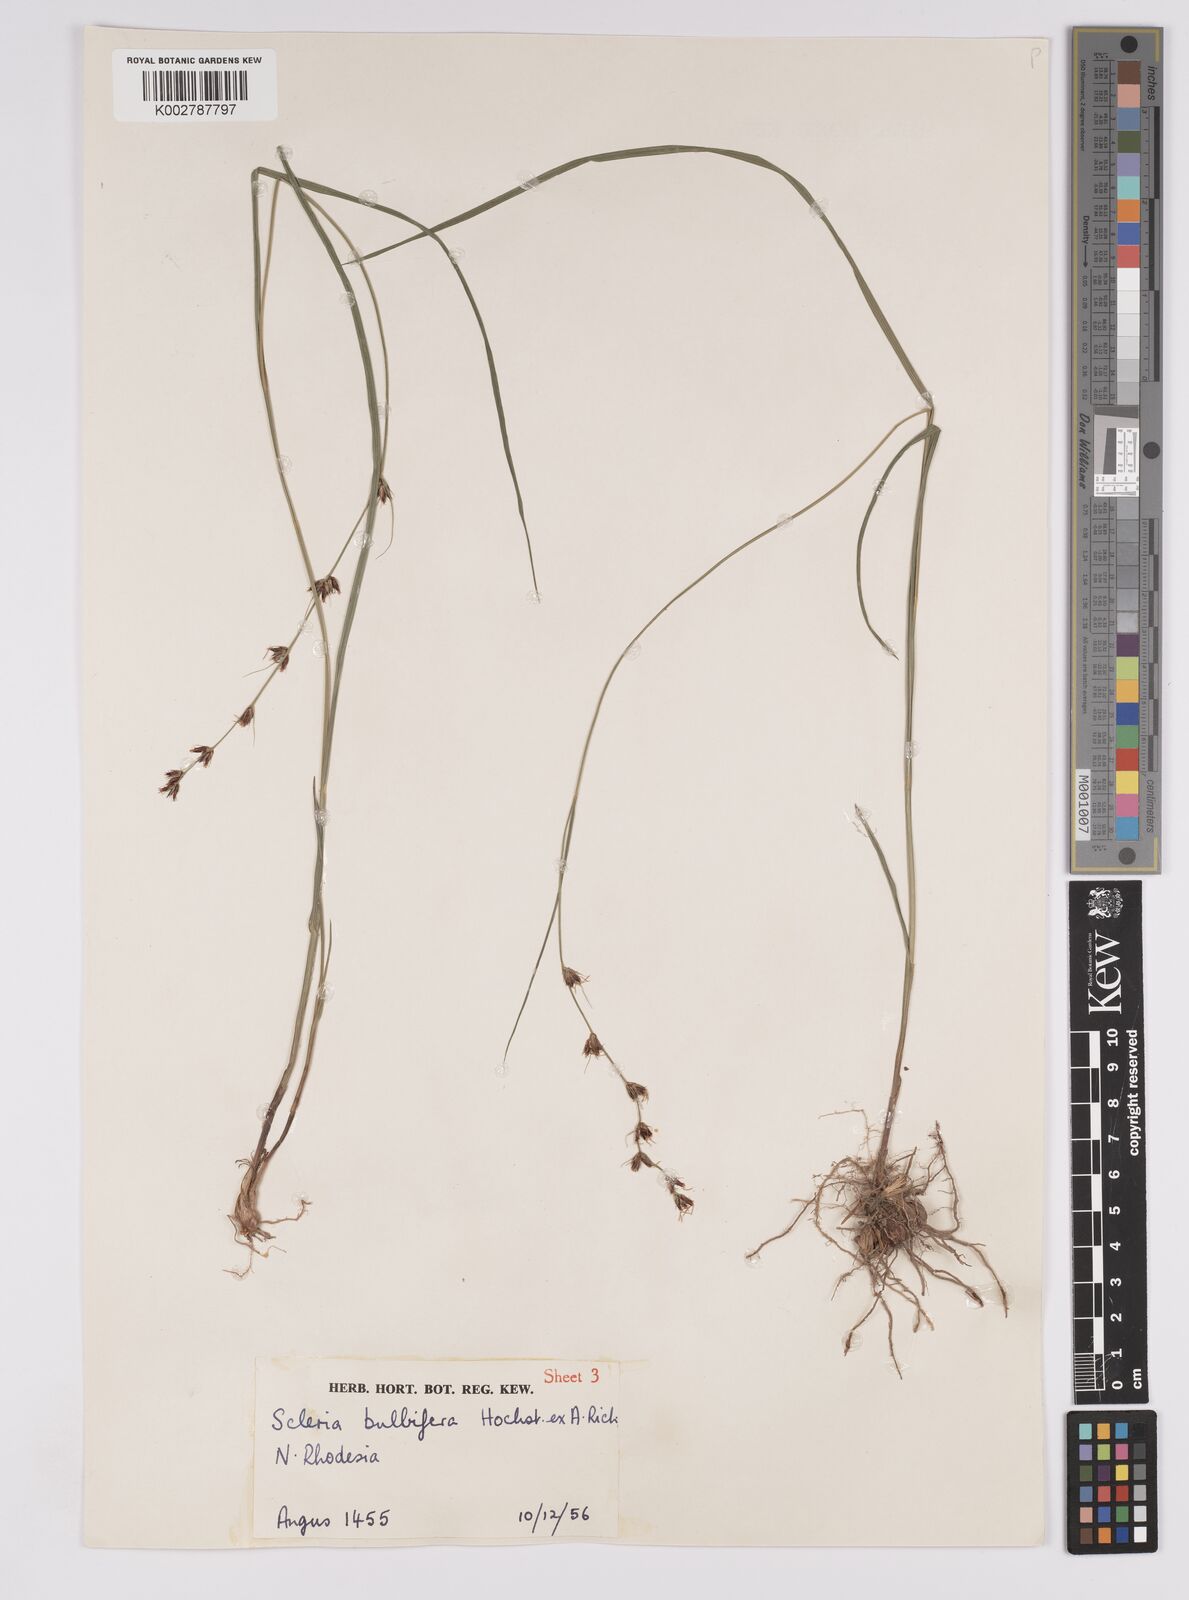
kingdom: Plantae
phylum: Tracheophyta
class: Liliopsida
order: Poales
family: Cyperaceae
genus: Scleria
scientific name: Scleria bulbifera
